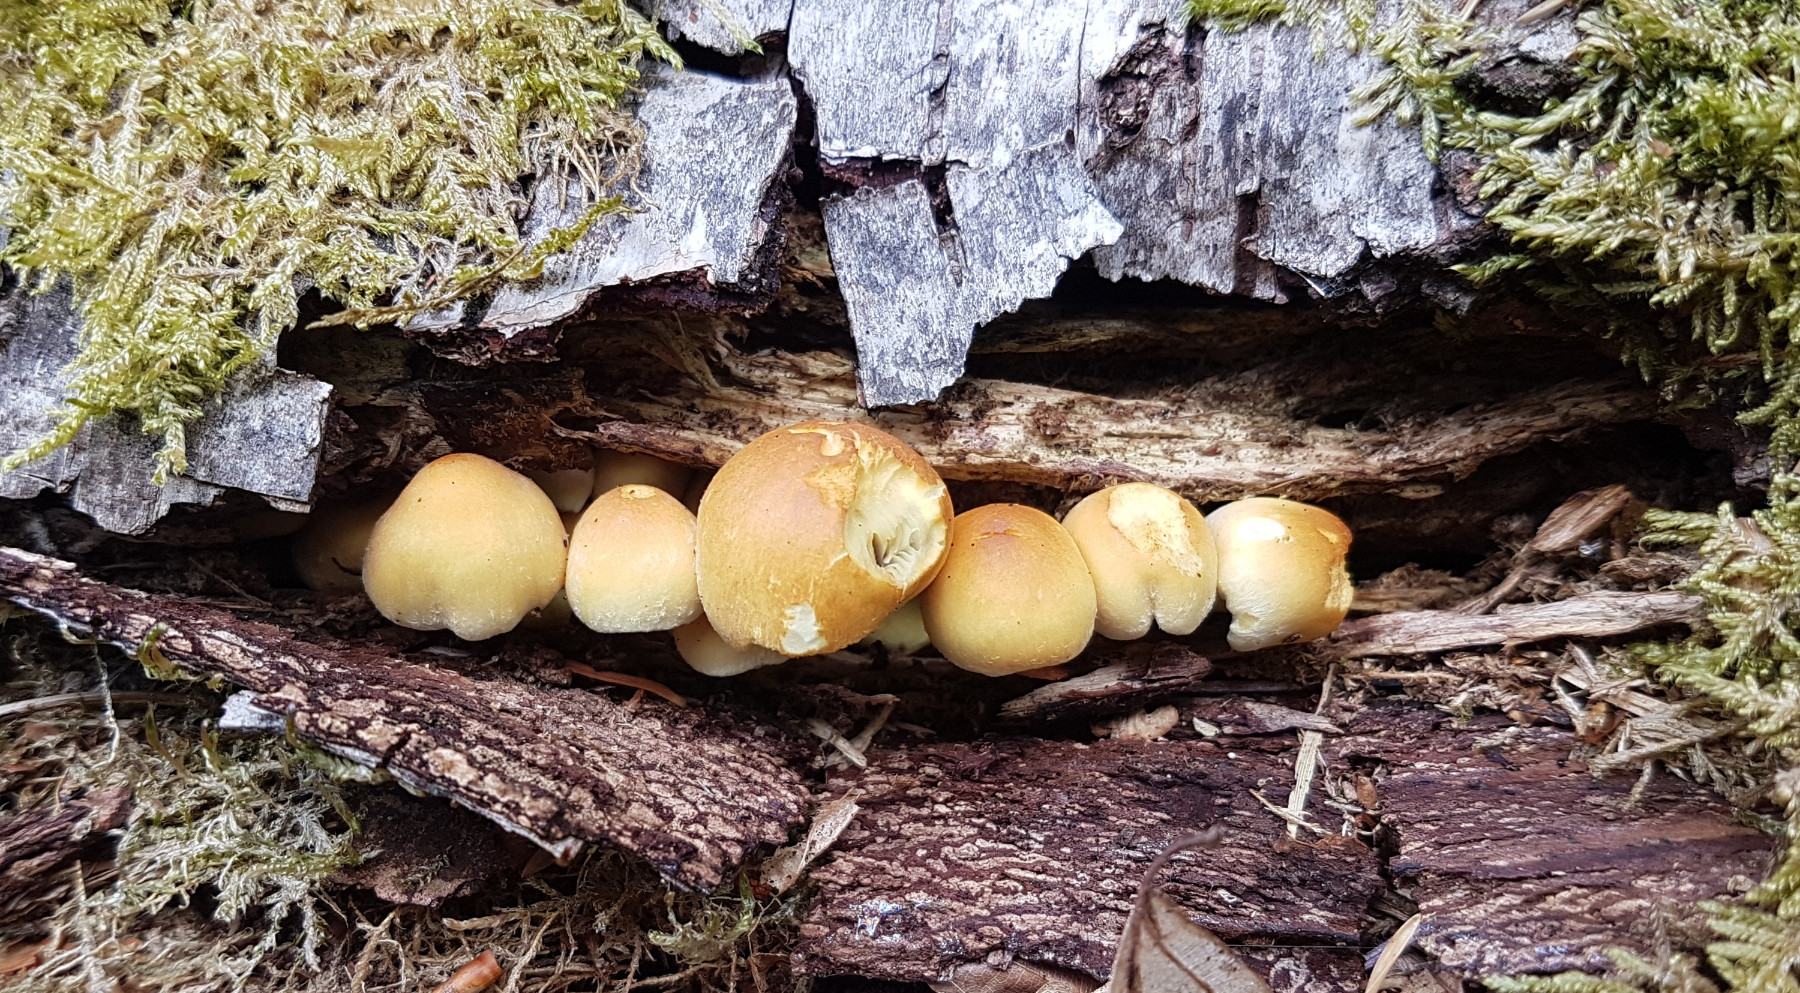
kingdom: Fungi
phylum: Basidiomycota
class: Agaricomycetes
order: Agaricales
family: Strophariaceae
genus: Hypholoma
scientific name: Hypholoma fasciculare
